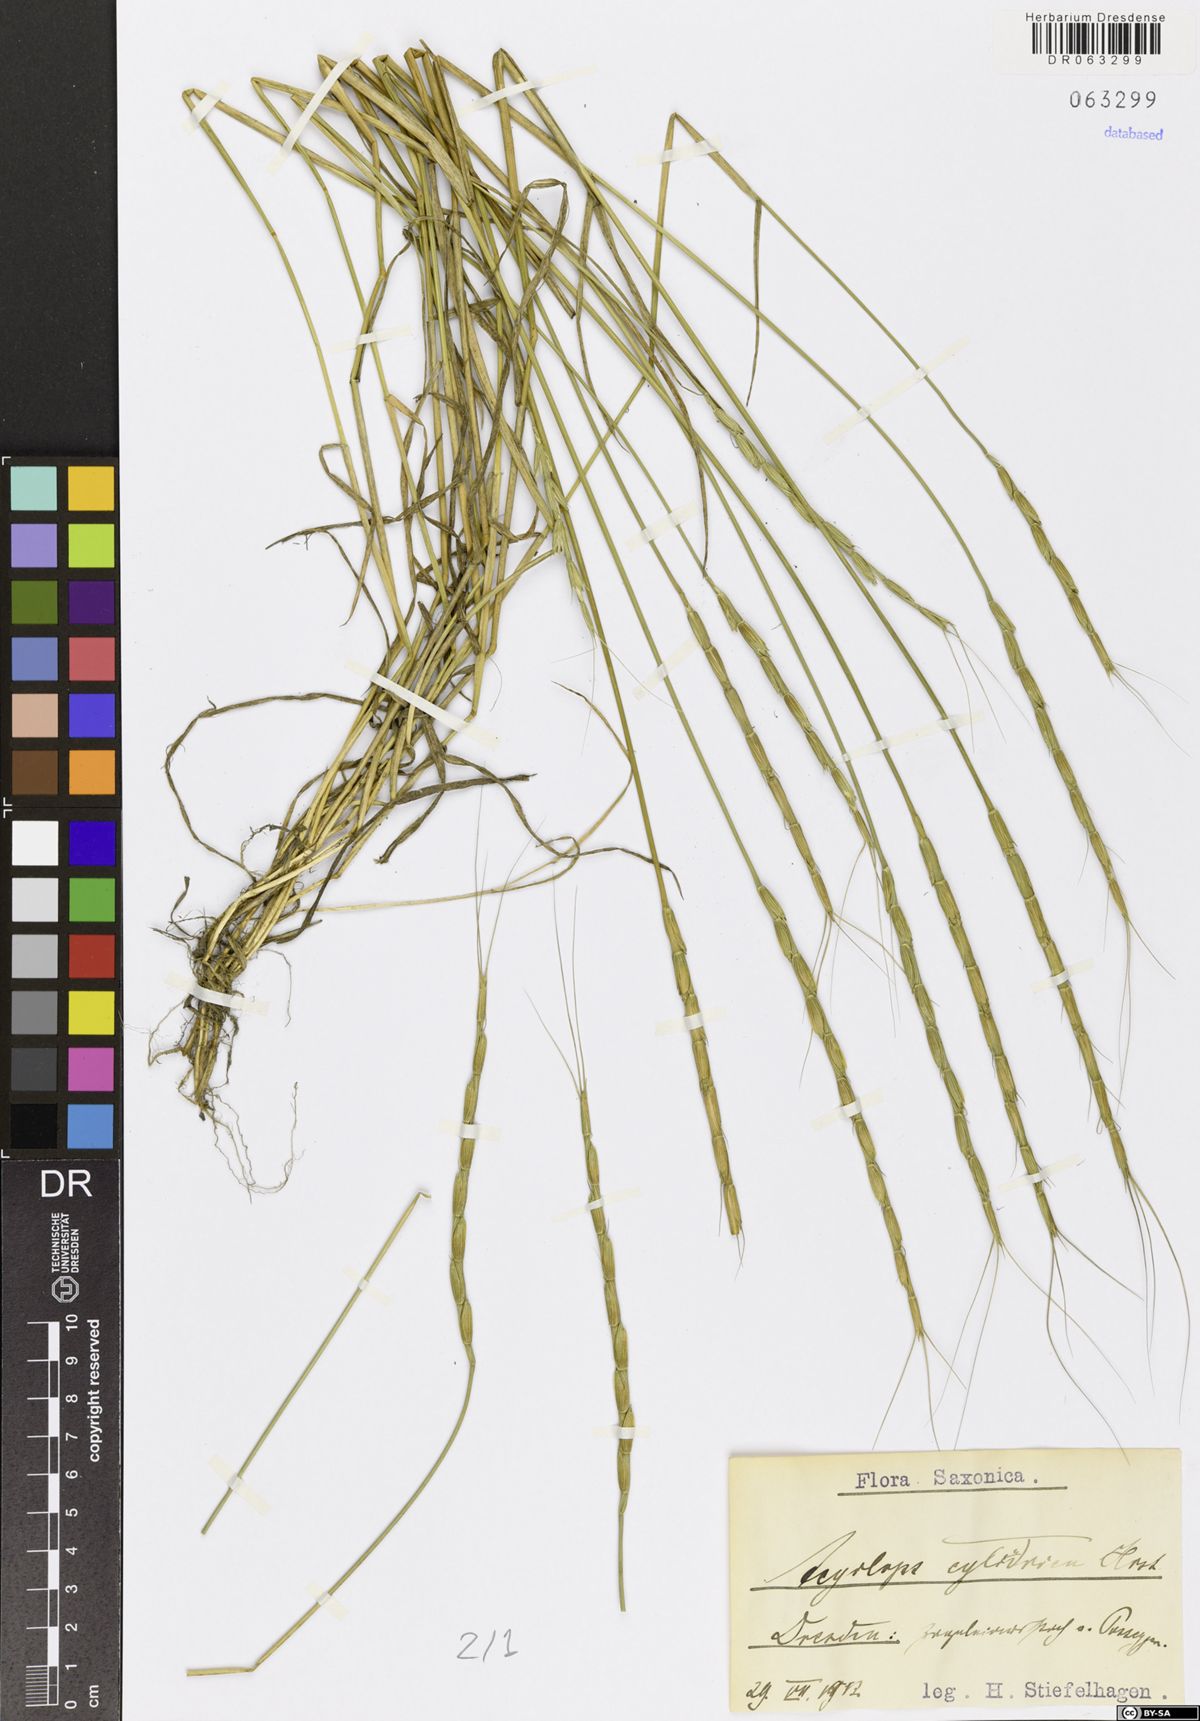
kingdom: Plantae
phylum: Tracheophyta
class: Liliopsida
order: Poales
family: Poaceae
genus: Aegilops
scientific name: Aegilops cylindrica
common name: Jointed goatgrass
